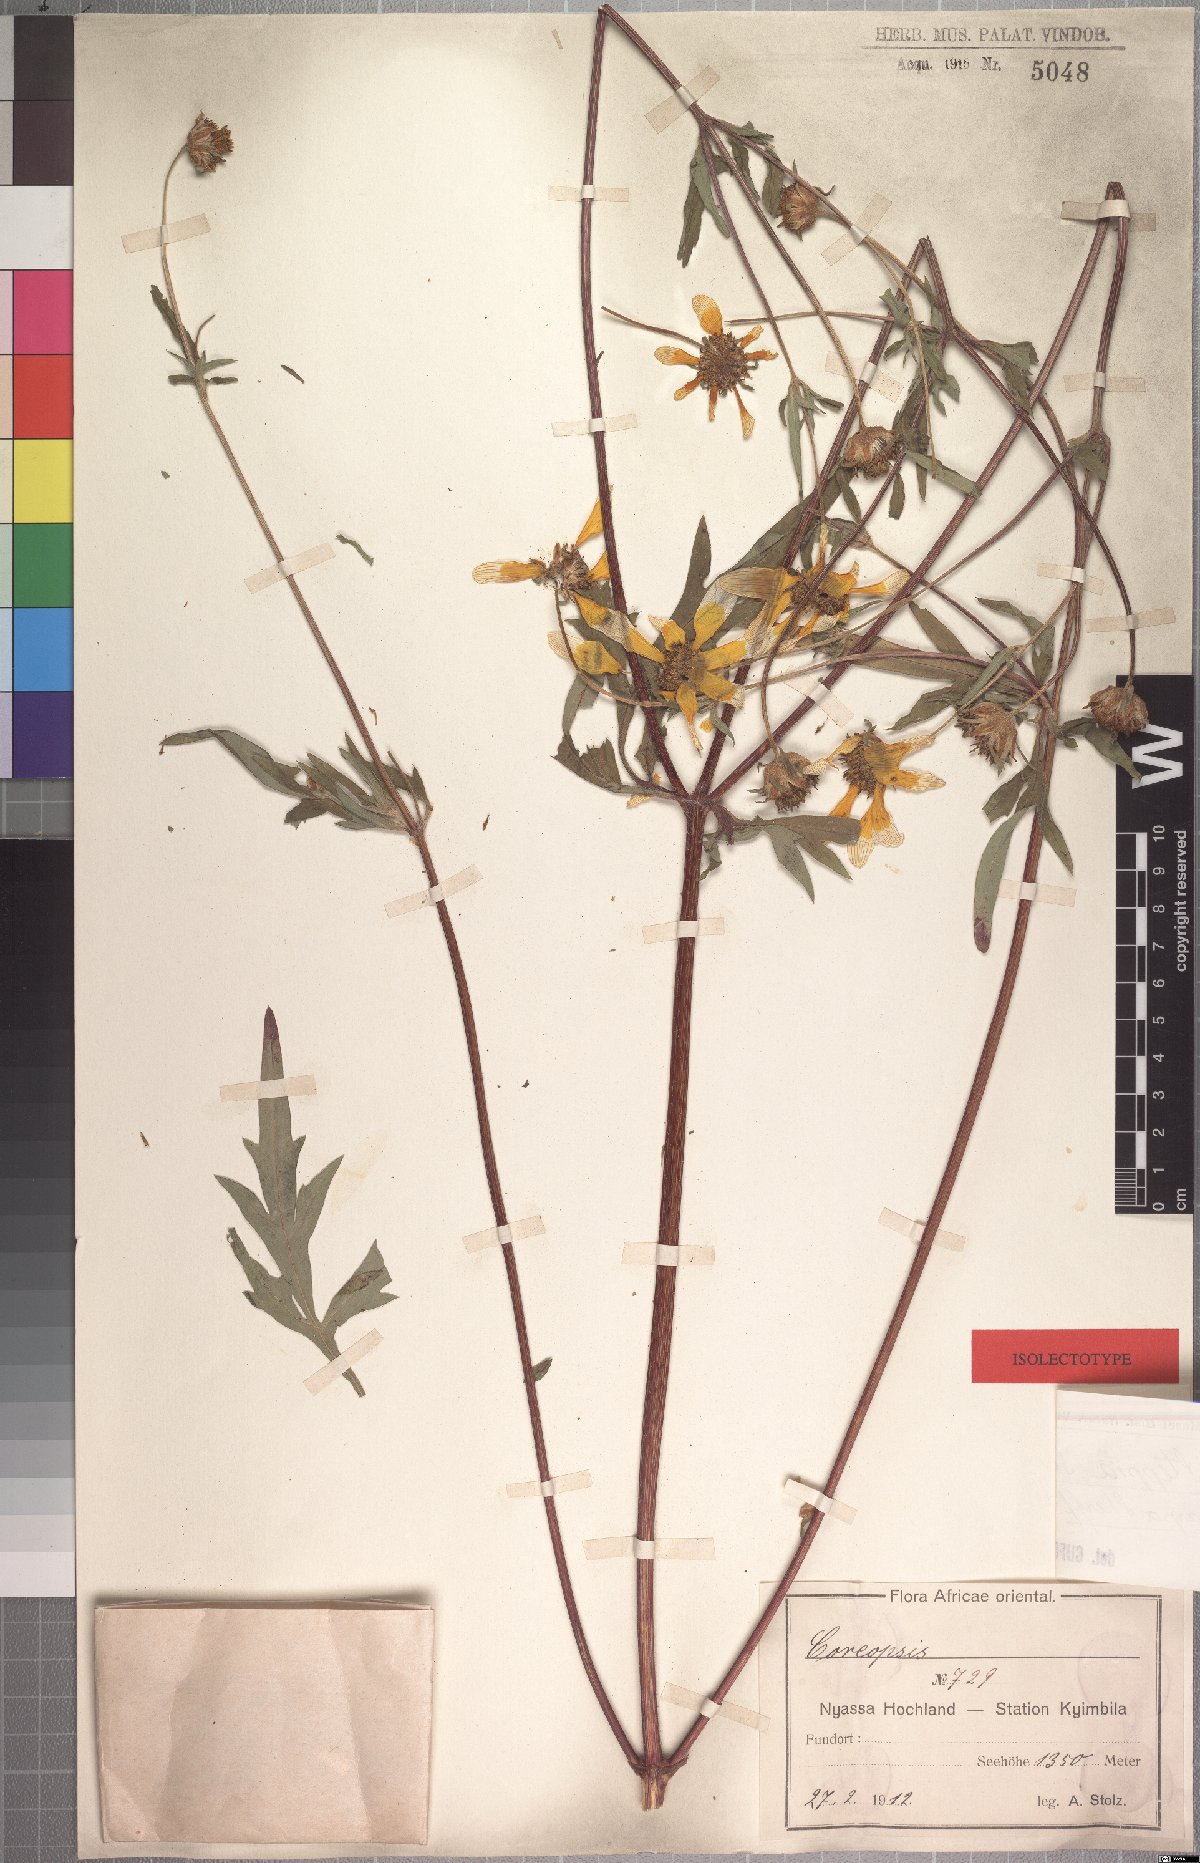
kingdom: Plantae
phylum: Tracheophyta
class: Magnoliopsida
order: Asterales
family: Asteraceae
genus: Bidens
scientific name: Bidens steppia
